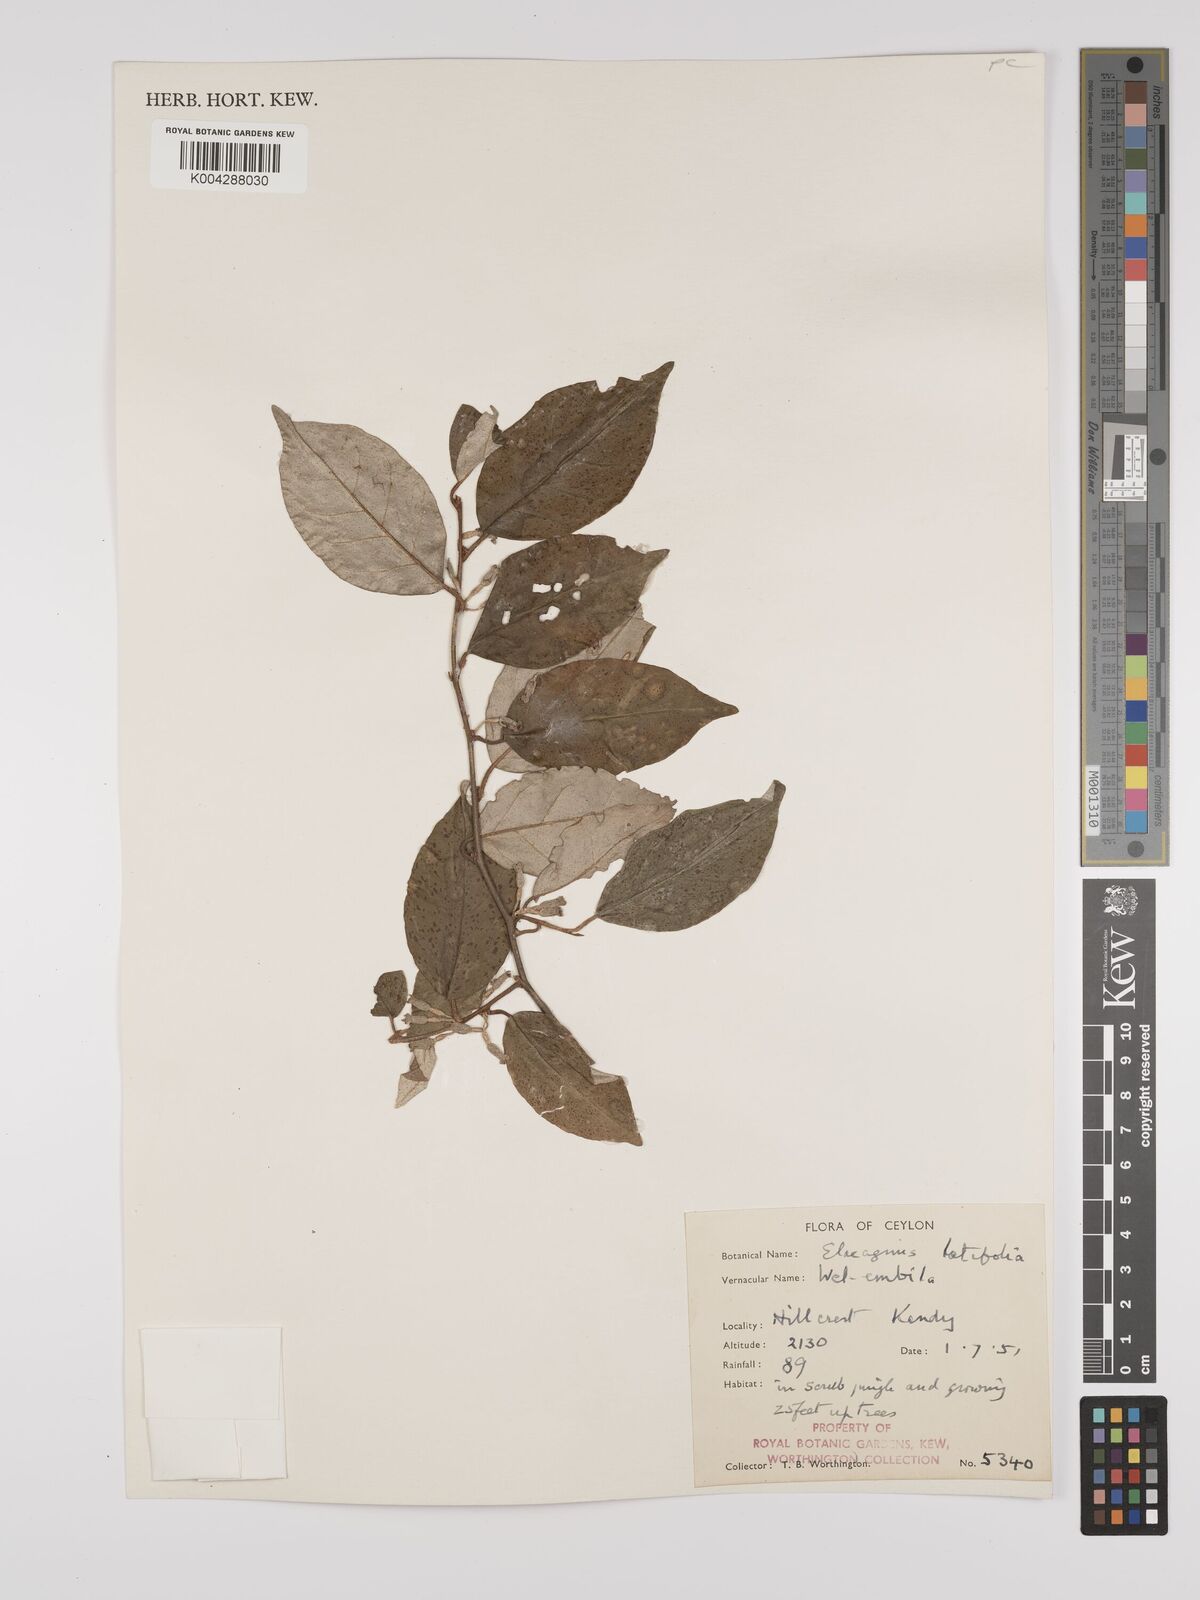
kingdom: Plantae
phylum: Tracheophyta
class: Magnoliopsida
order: Rosales
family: Elaeagnaceae
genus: Elaeagnus
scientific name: Elaeagnus latifolia
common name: Oleaster
